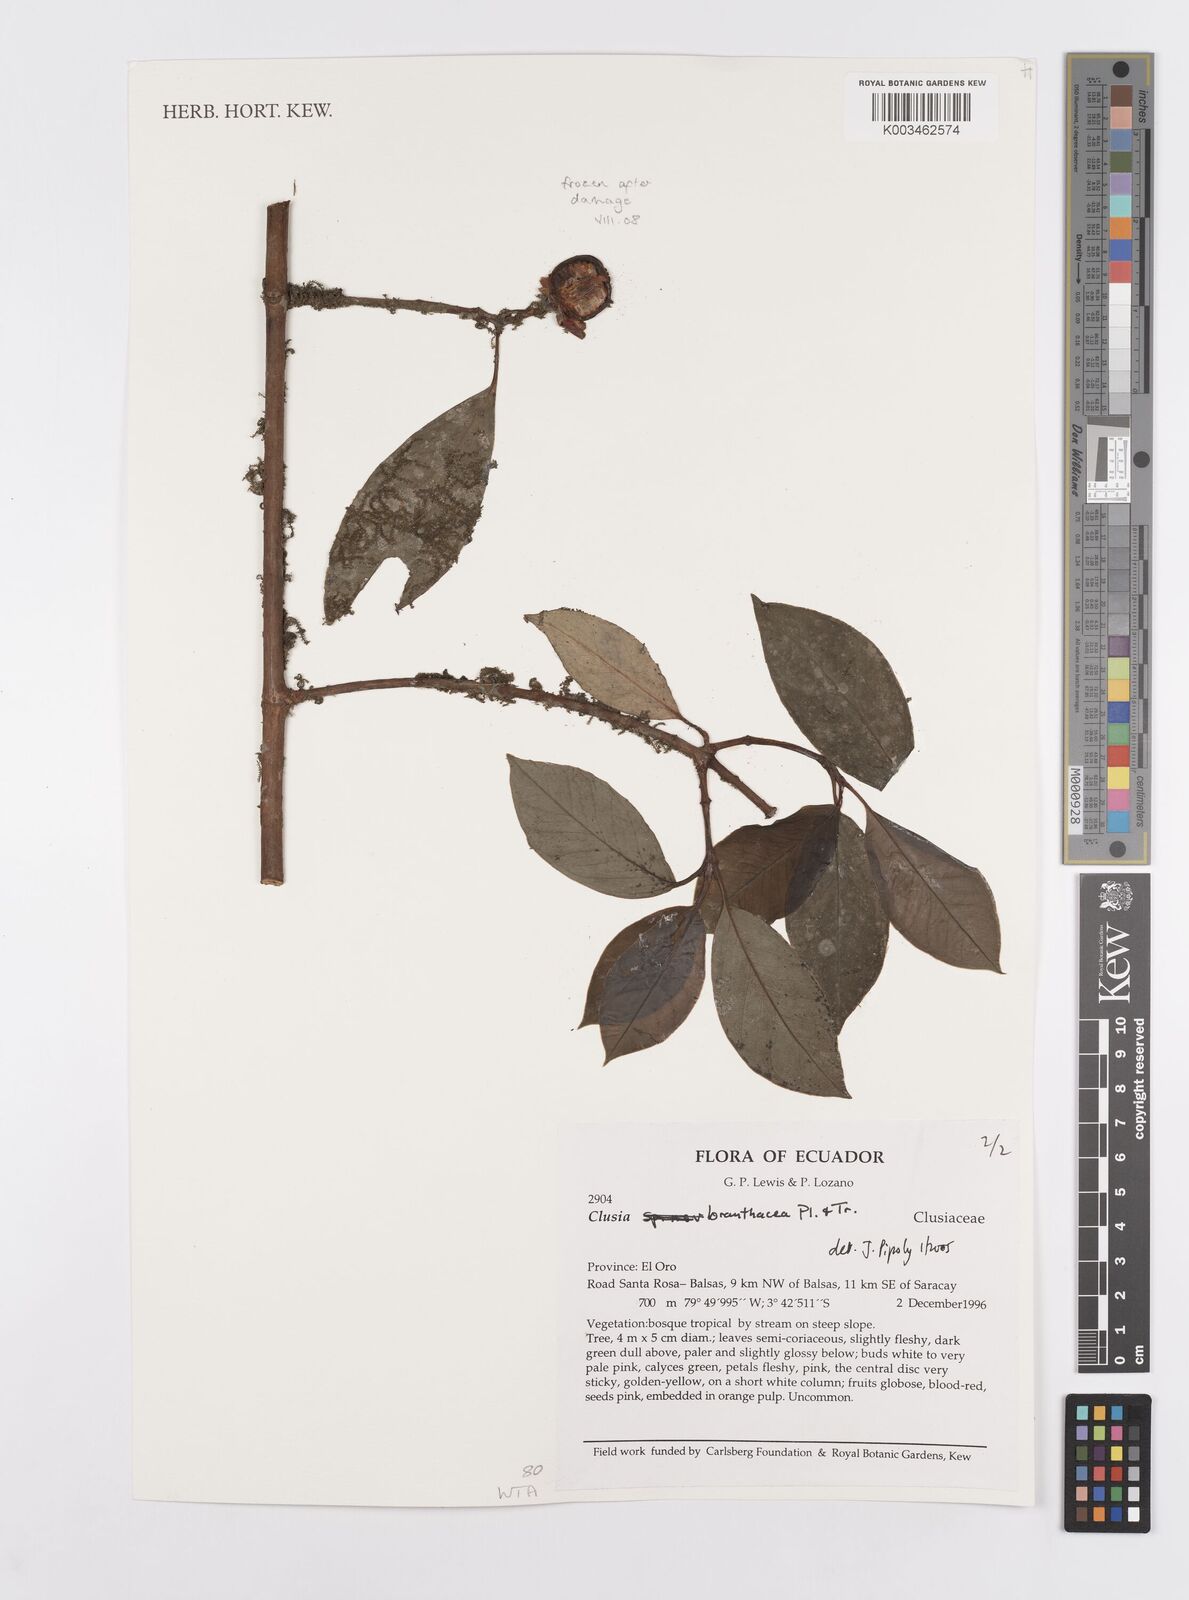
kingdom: Plantae
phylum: Tracheophyta
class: Magnoliopsida
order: Malpighiales
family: Clusiaceae
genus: Clusia
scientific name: Clusia loranthacea
